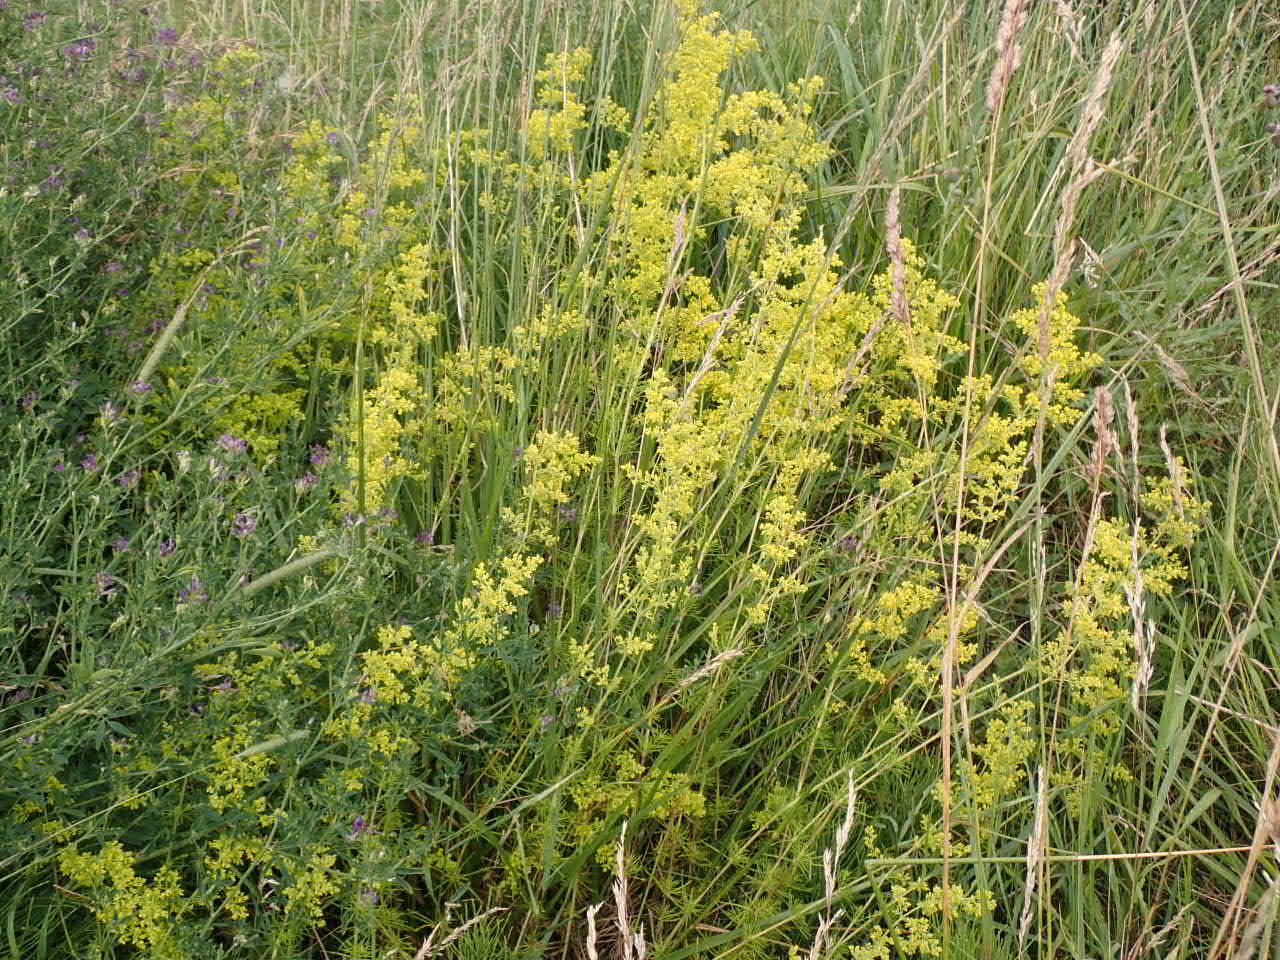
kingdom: Plantae
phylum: Tracheophyta
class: Magnoliopsida
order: Gentianales
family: Rubiaceae
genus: Galium
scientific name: Galium verum
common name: Gul snerre
